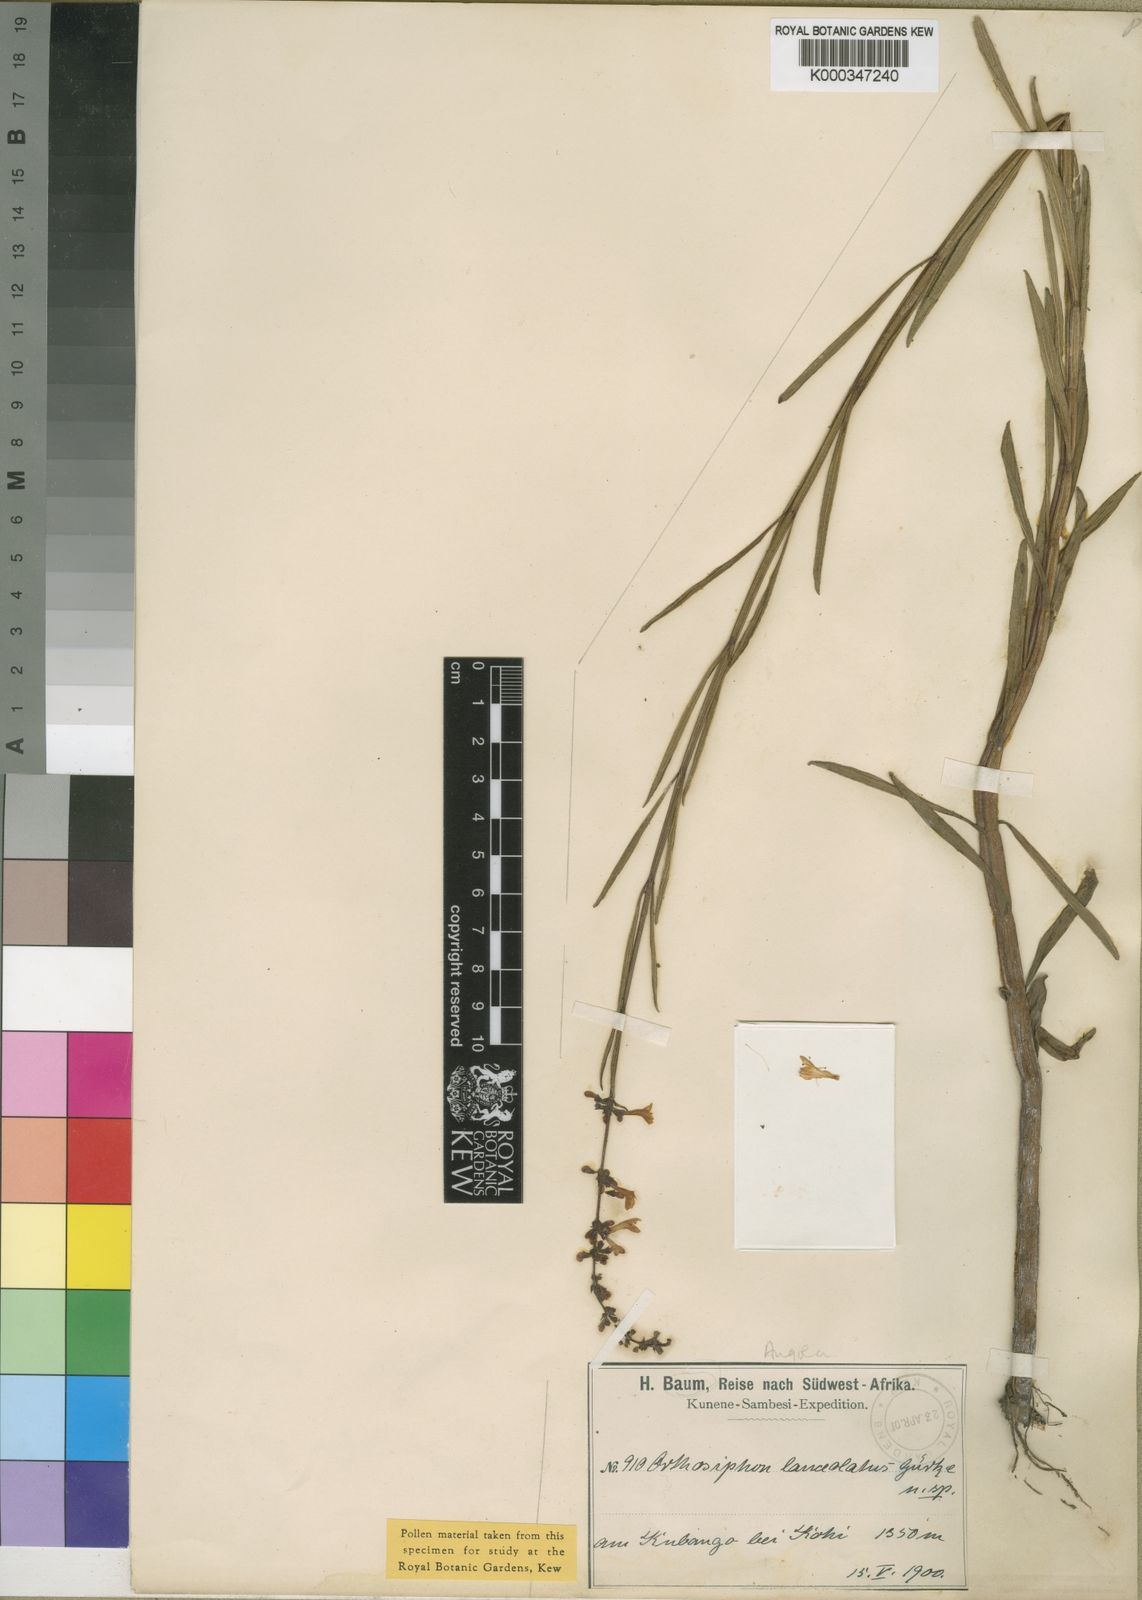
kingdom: Plantae
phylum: Tracheophyta
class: Magnoliopsida
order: Lamiales
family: Lamiaceae
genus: Benguellia
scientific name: Benguellia
